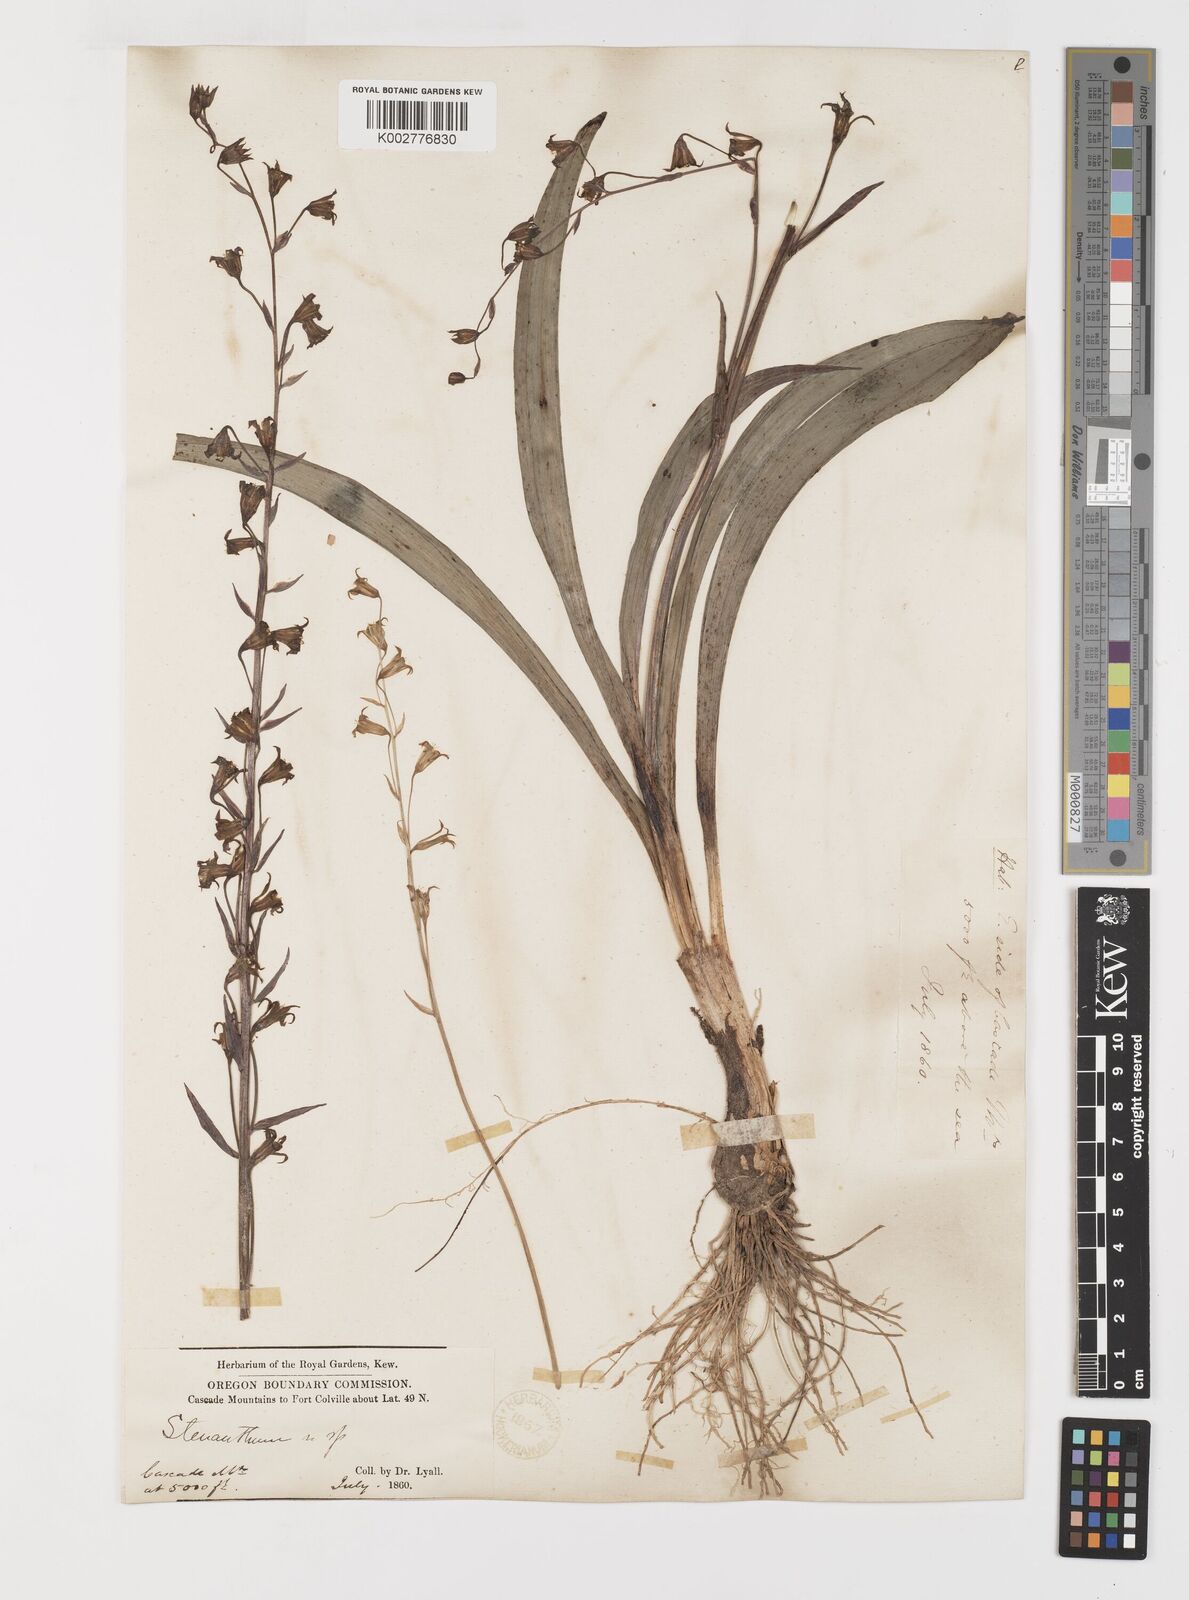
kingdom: Plantae
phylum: Tracheophyta
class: Liliopsida
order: Liliales
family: Melanthiaceae
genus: Anticlea
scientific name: Anticlea occidentalis
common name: Bronze-bells
